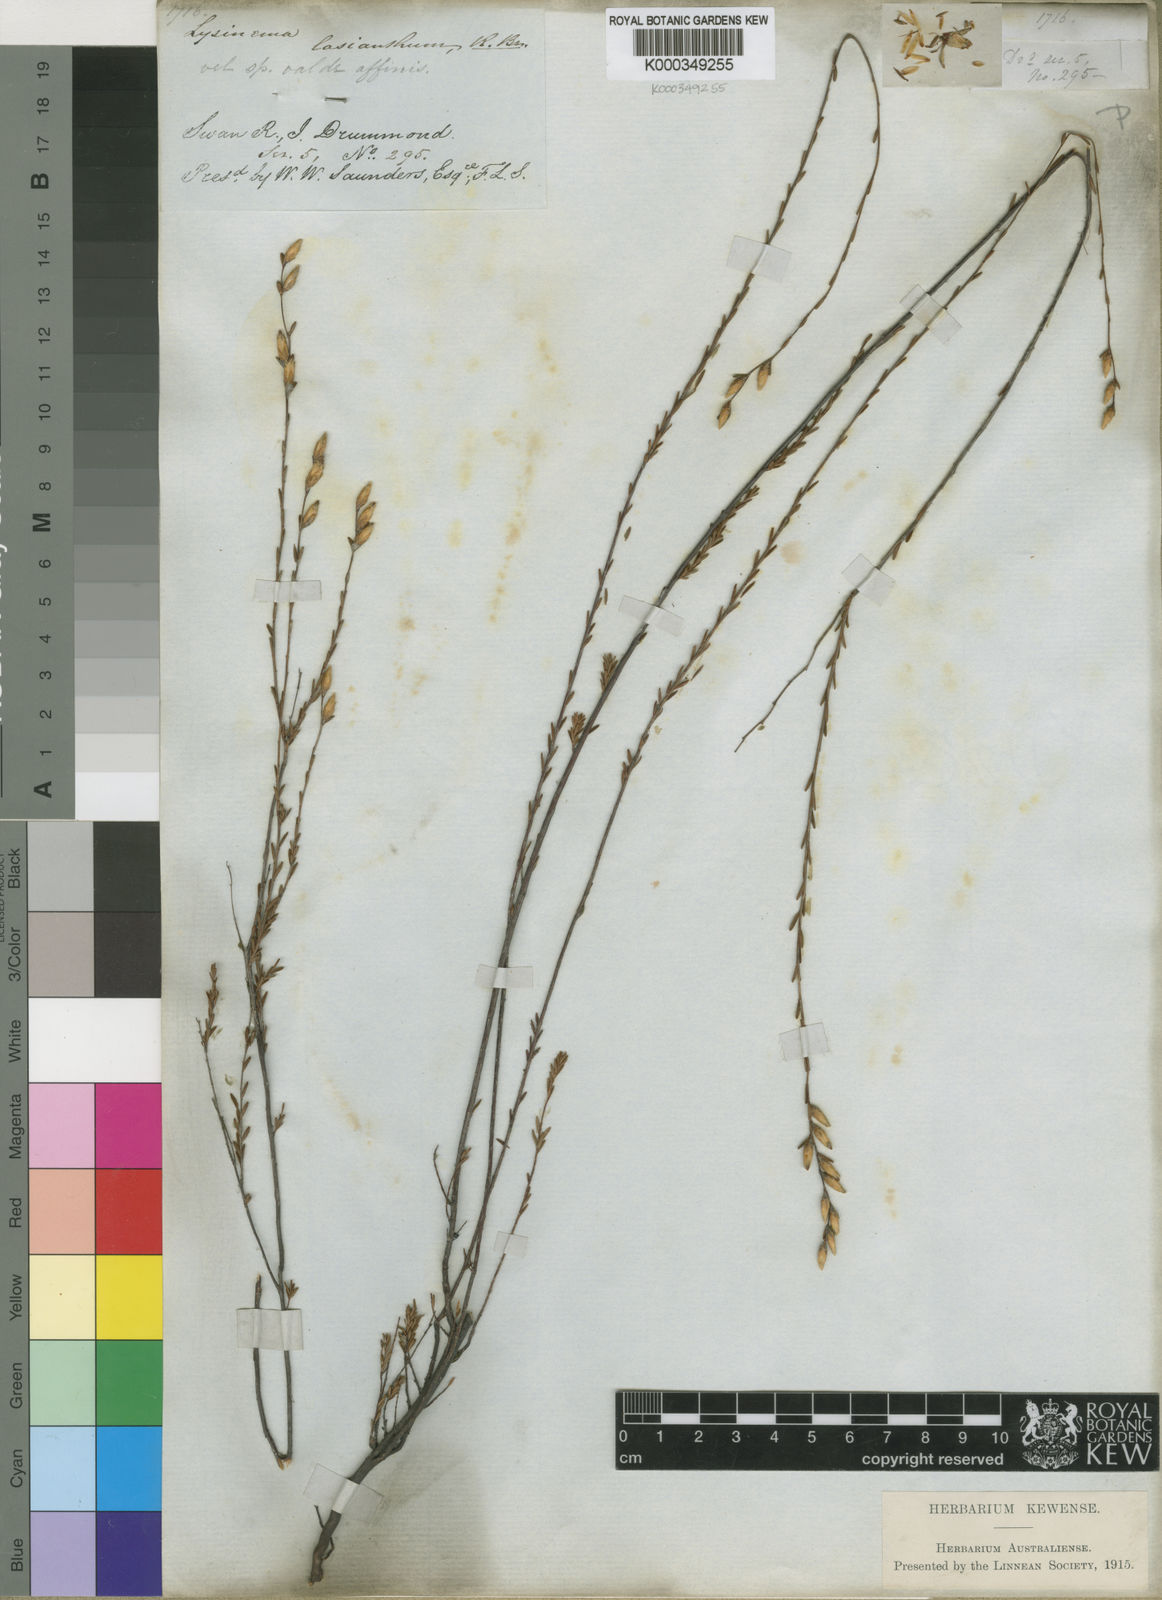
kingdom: Plantae
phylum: Tracheophyta
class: Magnoliopsida
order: Ericales
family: Ericaceae
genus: Lysinema
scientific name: Lysinema lasianthum
